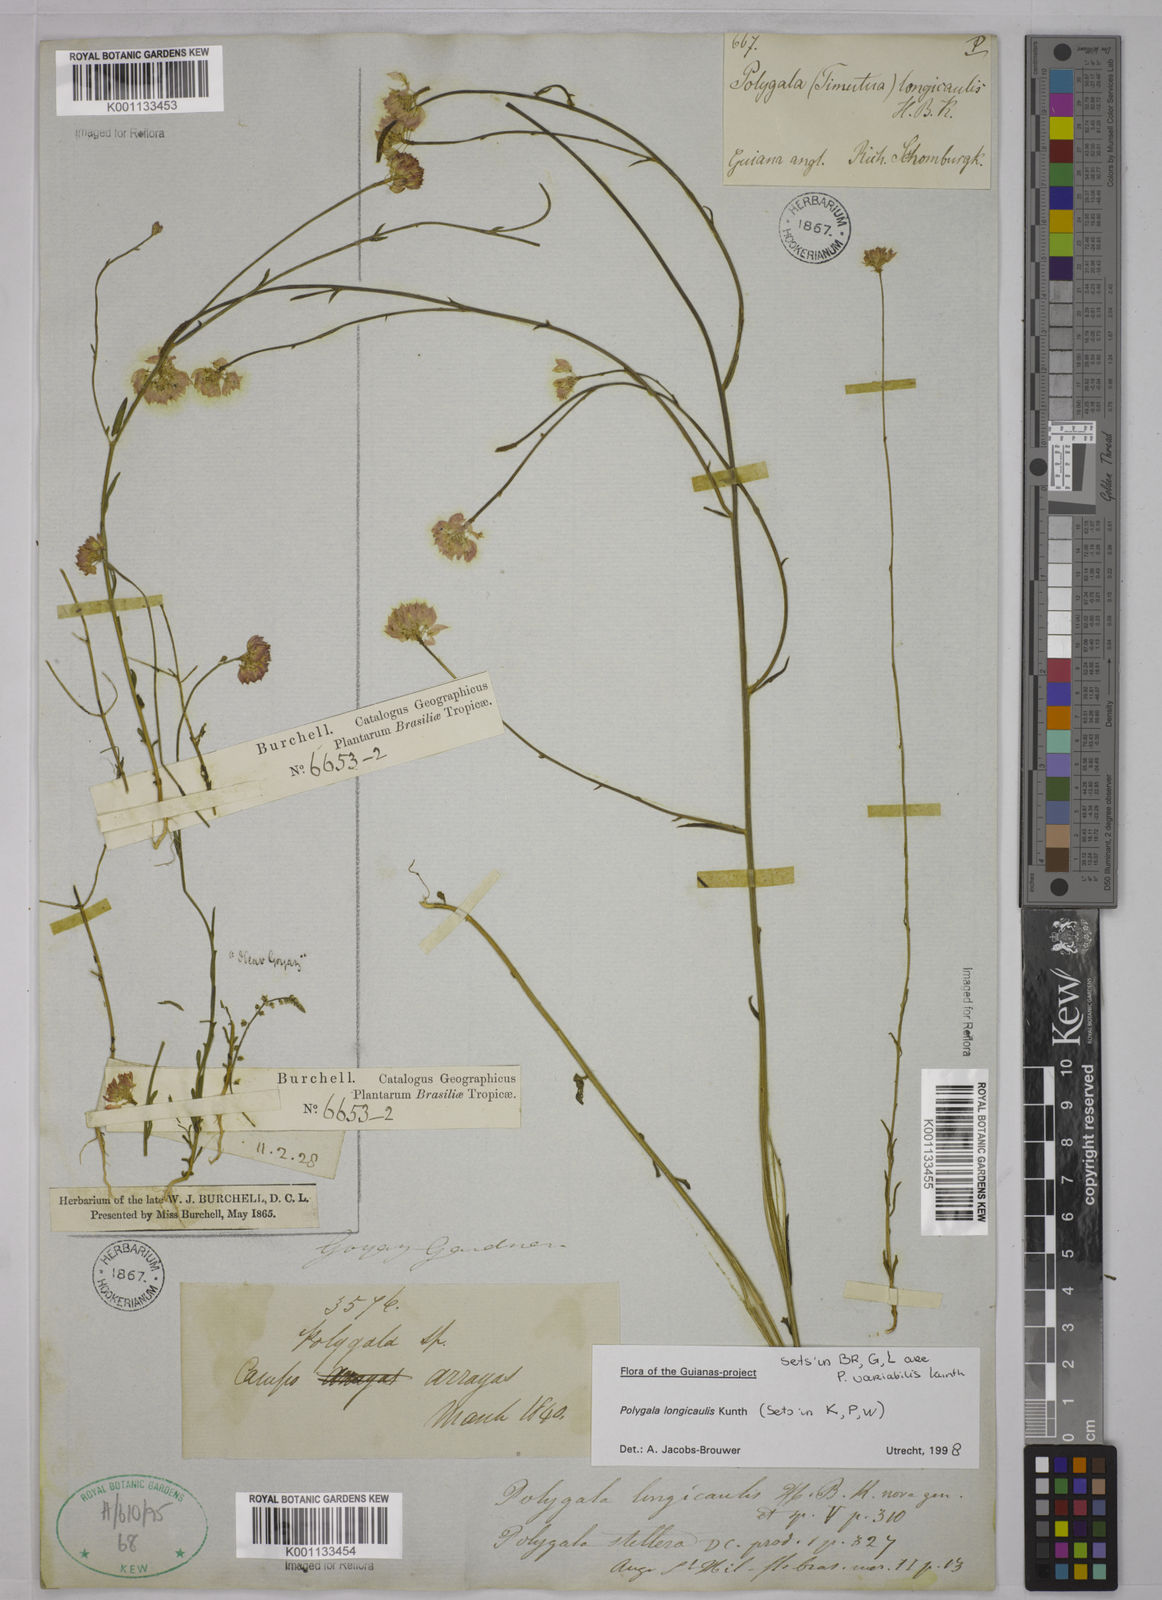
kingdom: Plantae
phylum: Tracheophyta
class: Magnoliopsida
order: Fabales
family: Polygalaceae
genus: Polygala
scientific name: Polygala longicaulis
